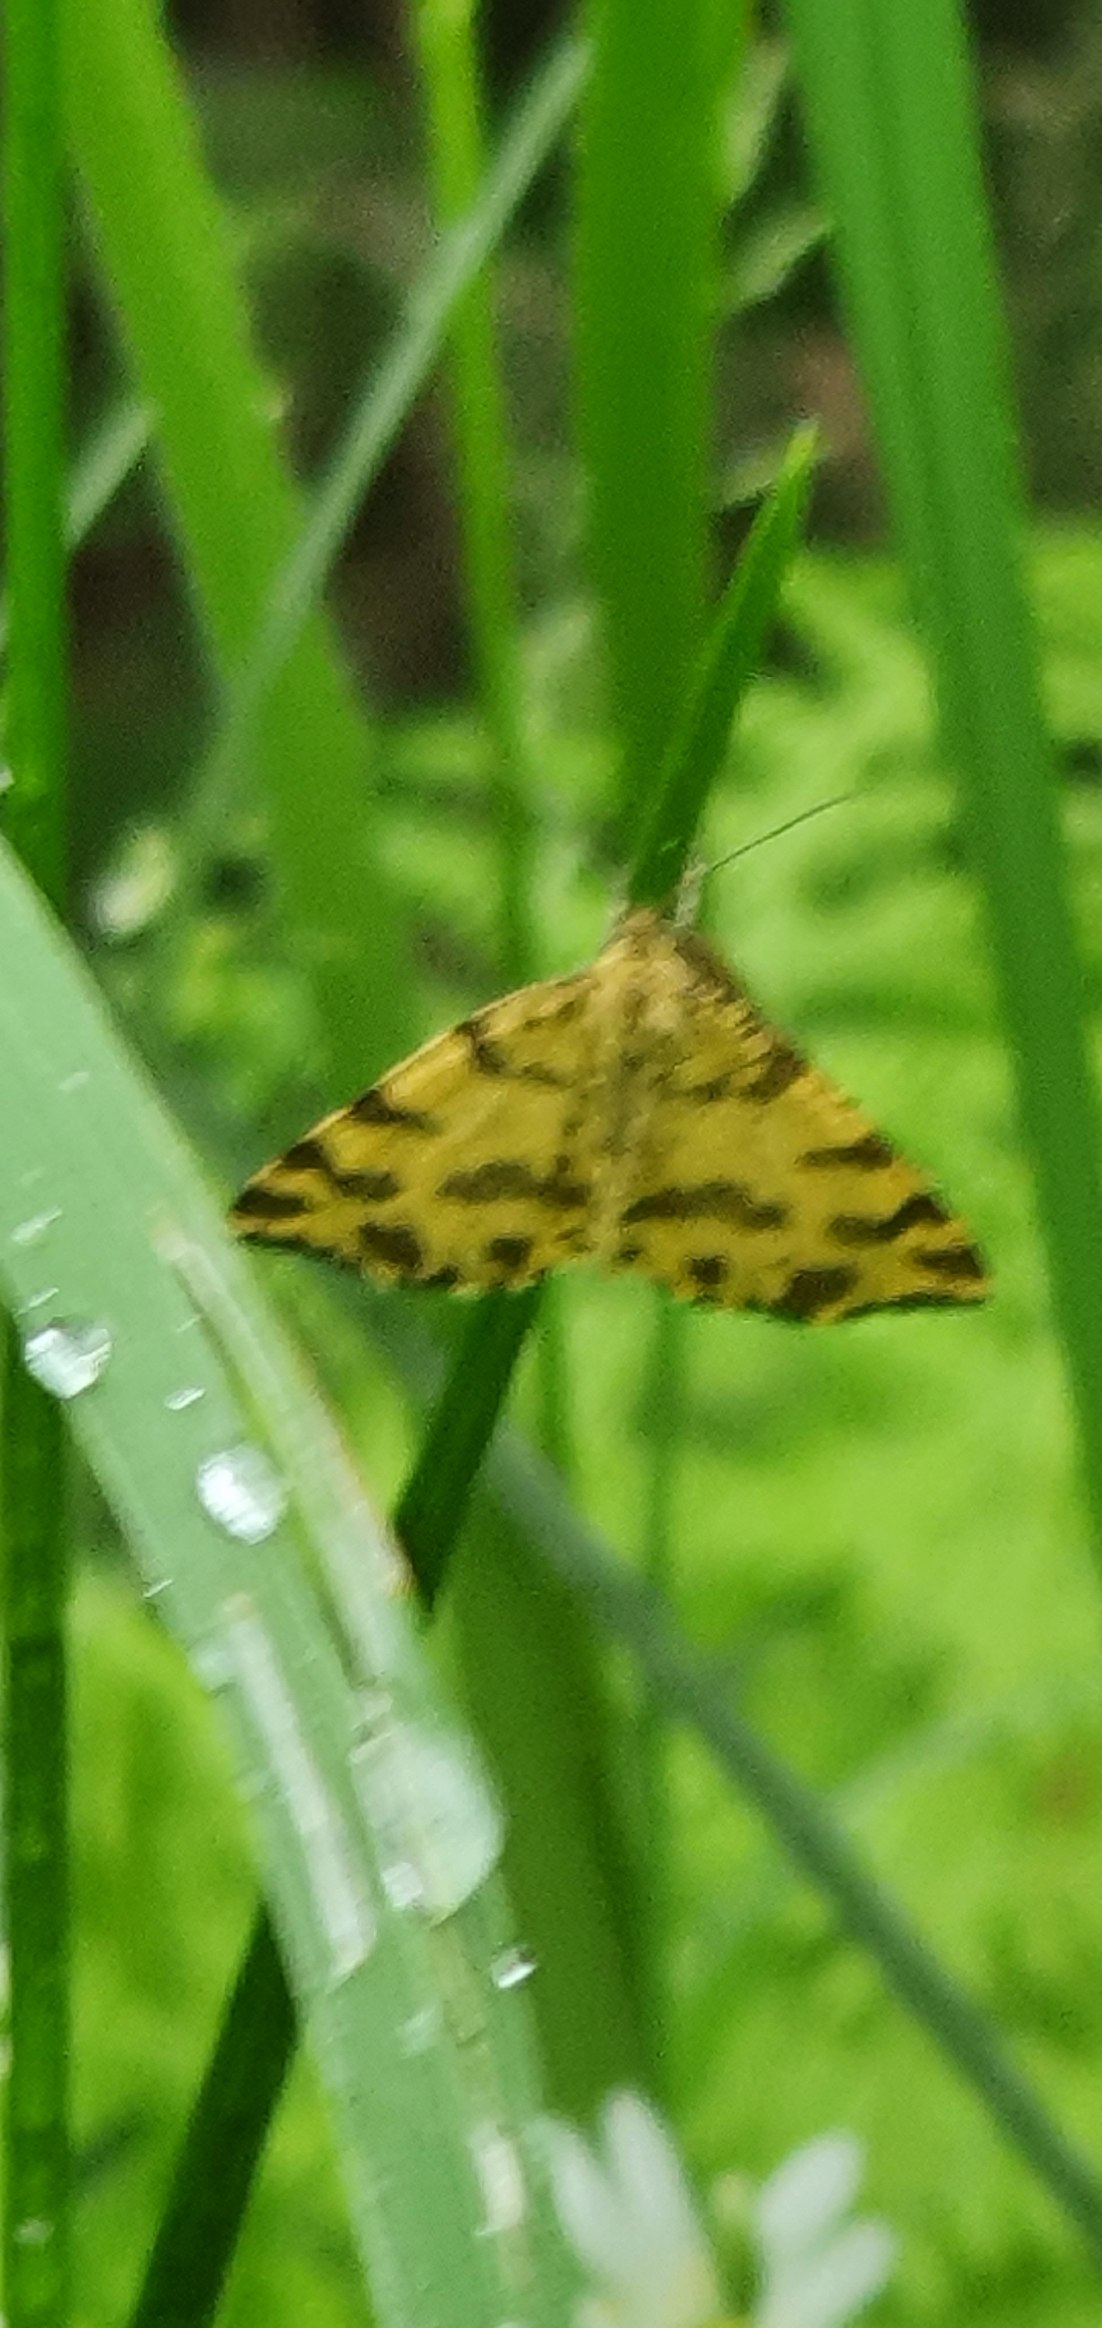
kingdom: Animalia
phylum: Arthropoda
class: Insecta
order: Lepidoptera
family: Geometridae
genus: Pseudopanthera
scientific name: Pseudopanthera macularia
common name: Leopardmåler
